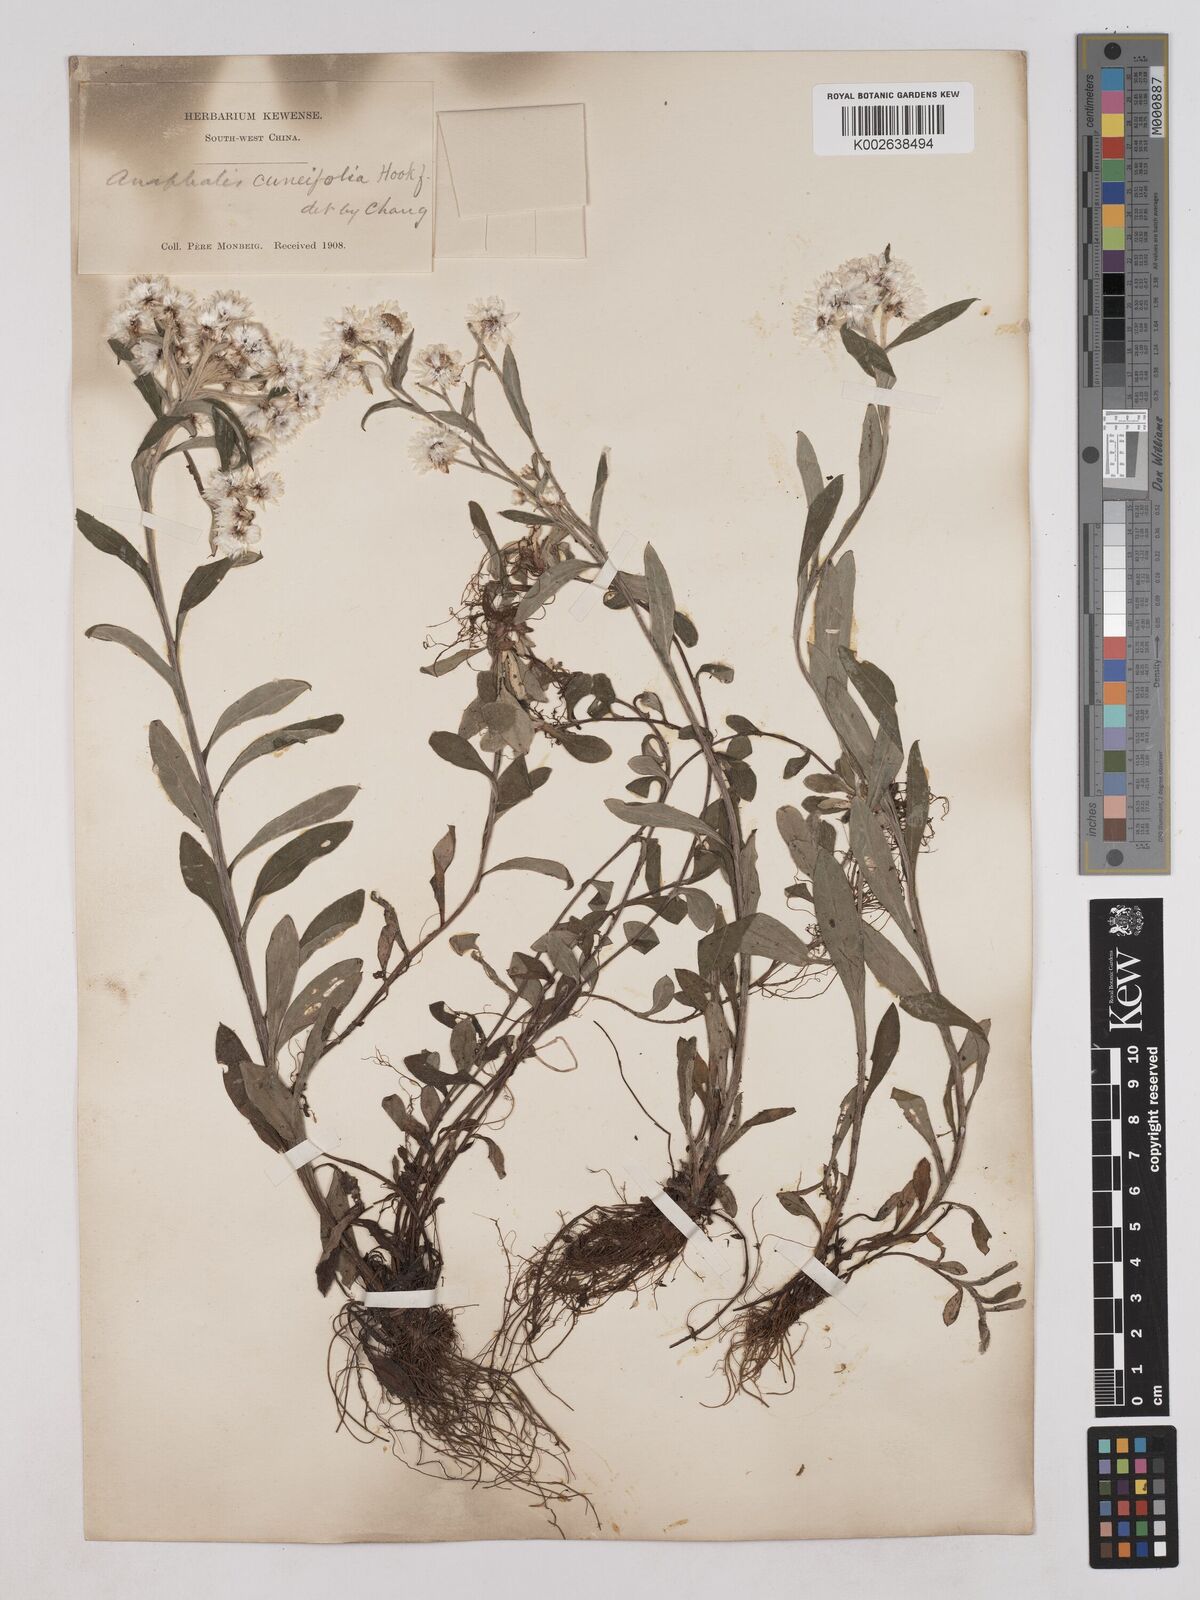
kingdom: Plantae
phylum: Tracheophyta
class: Magnoliopsida
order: Asterales
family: Asteraceae
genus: Anaphalis
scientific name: Anaphalis nepalensis
